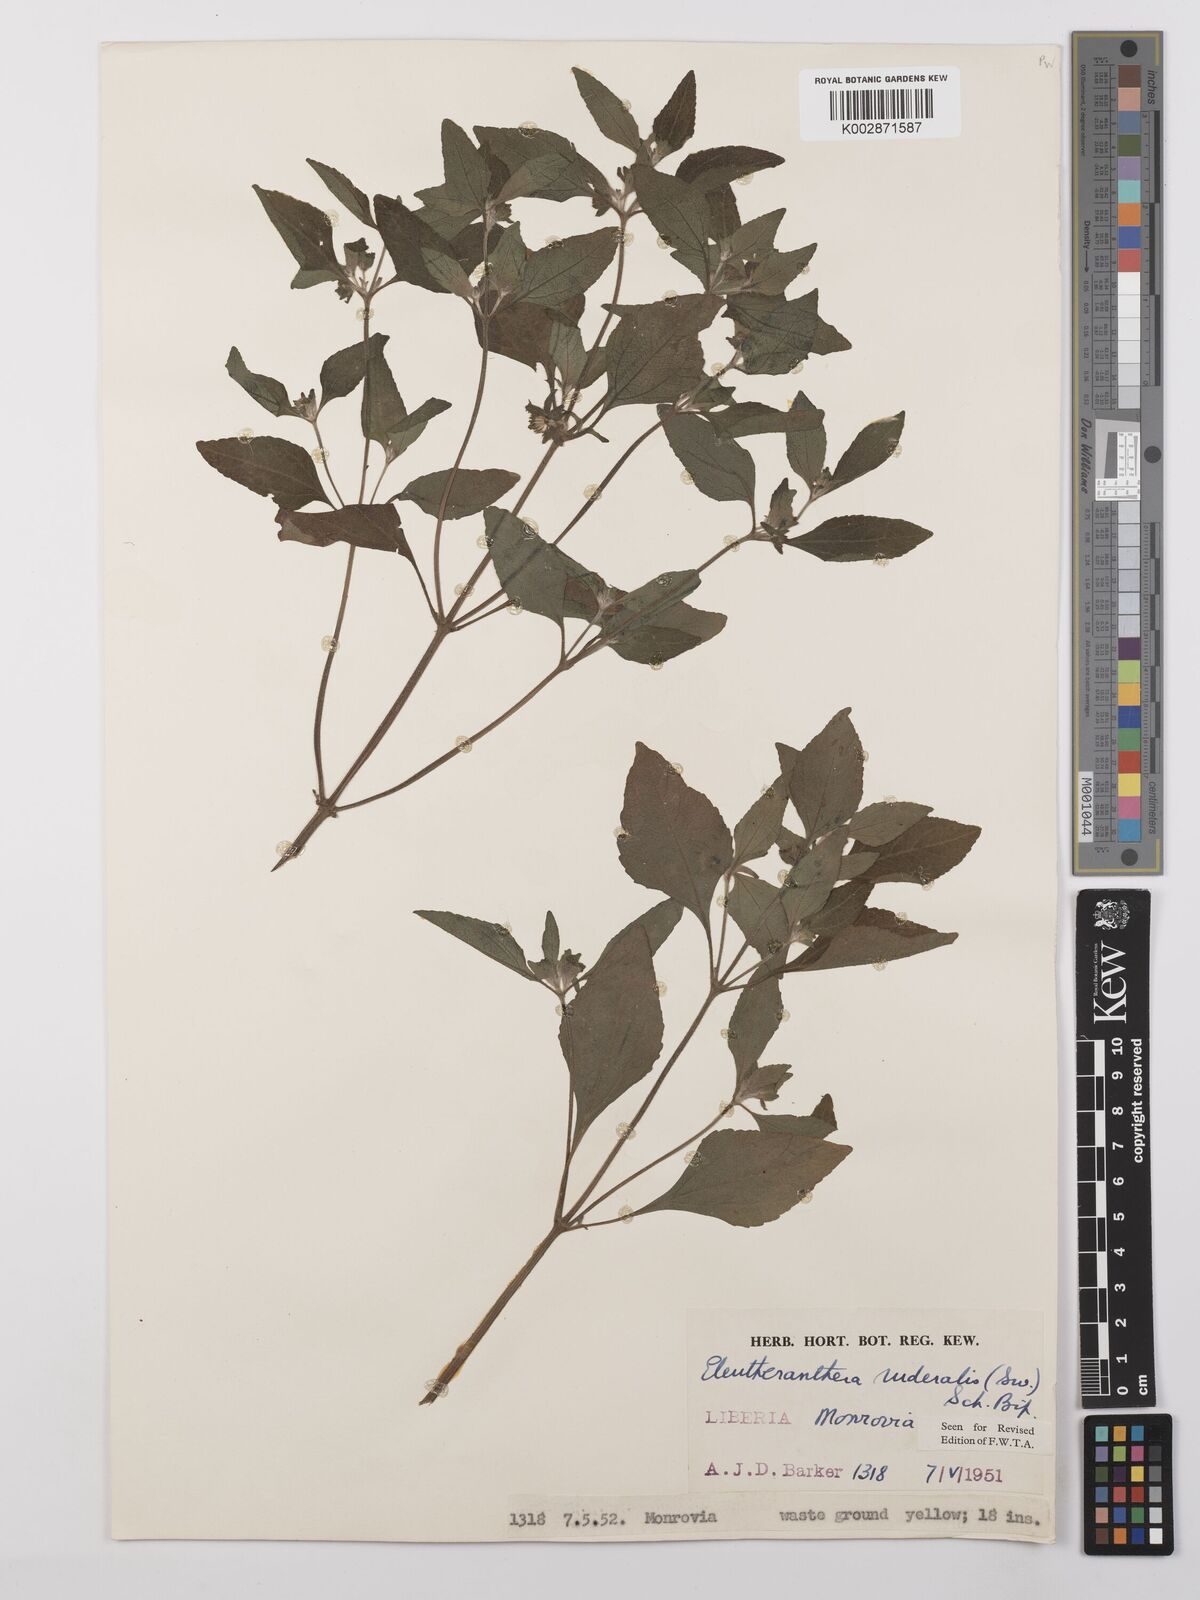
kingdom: Plantae
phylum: Tracheophyta
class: Magnoliopsida
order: Asterales
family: Asteraceae
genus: Eleutheranthera
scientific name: Eleutheranthera ruderalis
